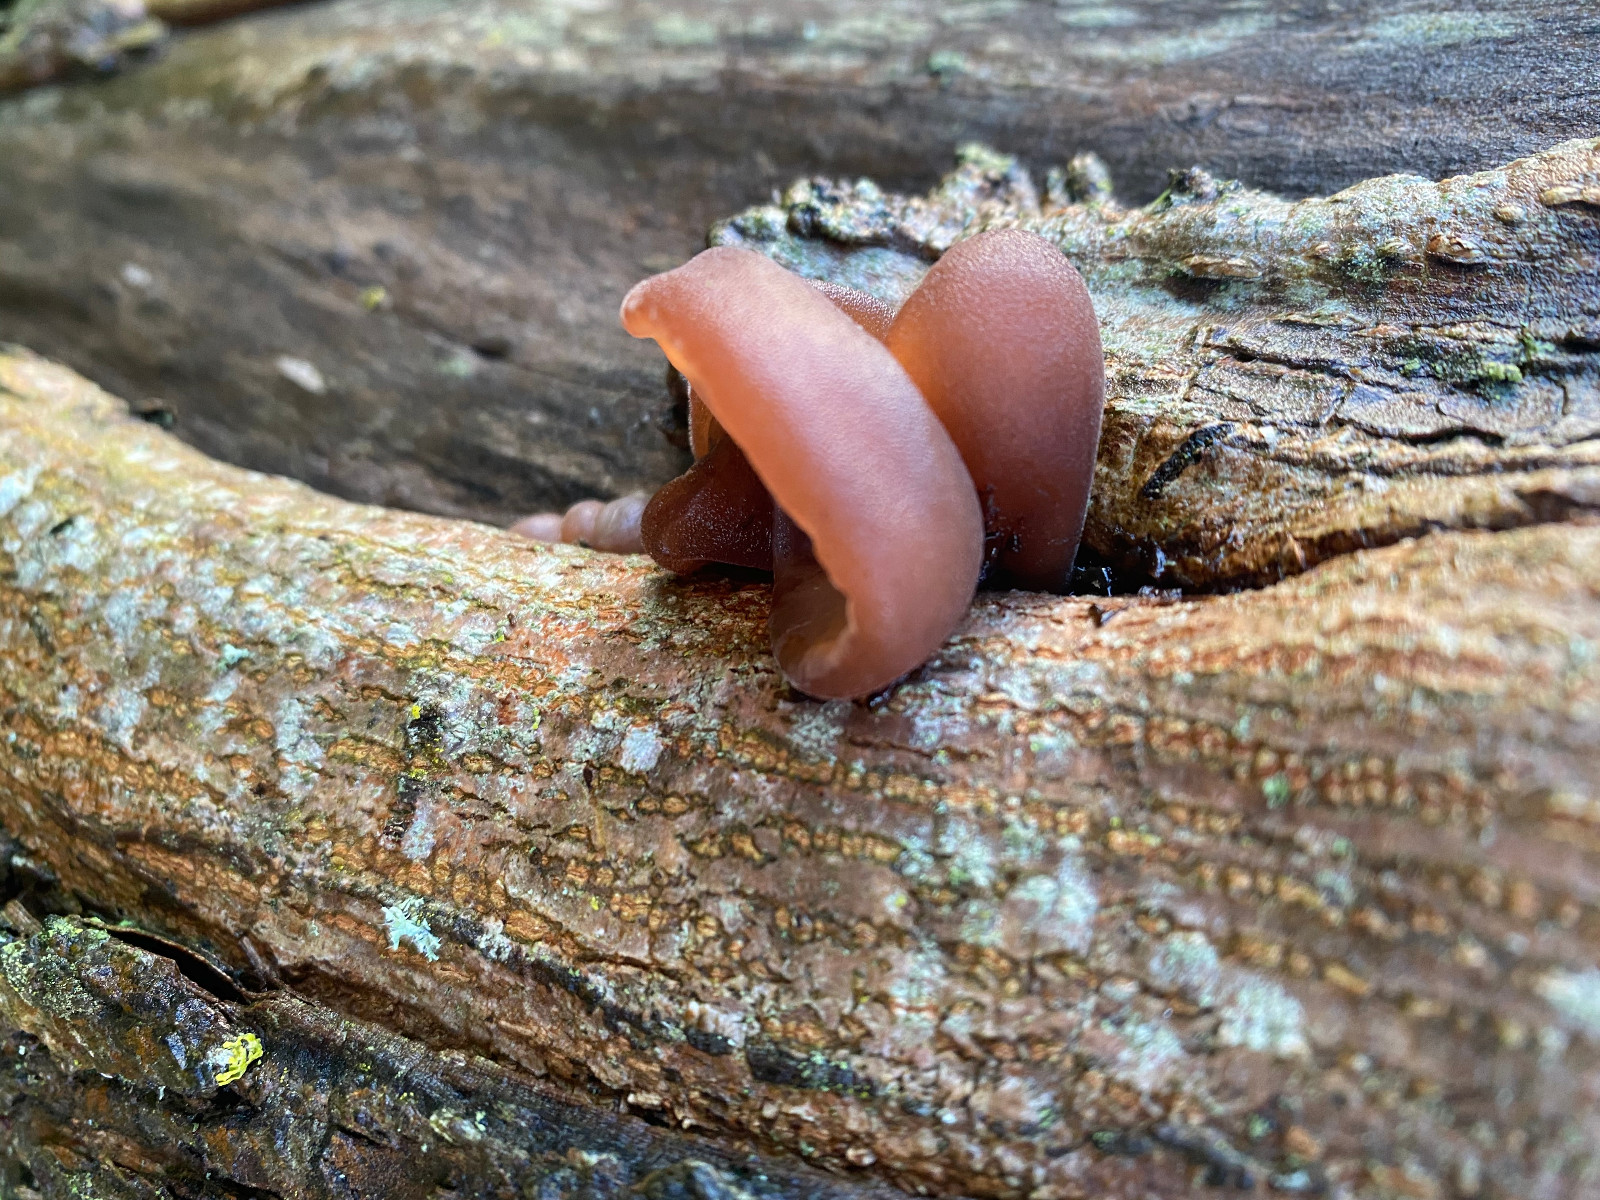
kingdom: Fungi
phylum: Basidiomycota
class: Agaricomycetes
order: Auriculariales
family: Auriculariaceae
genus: Auricularia
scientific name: Auricularia auricula-judae
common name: almindelig judasøre
